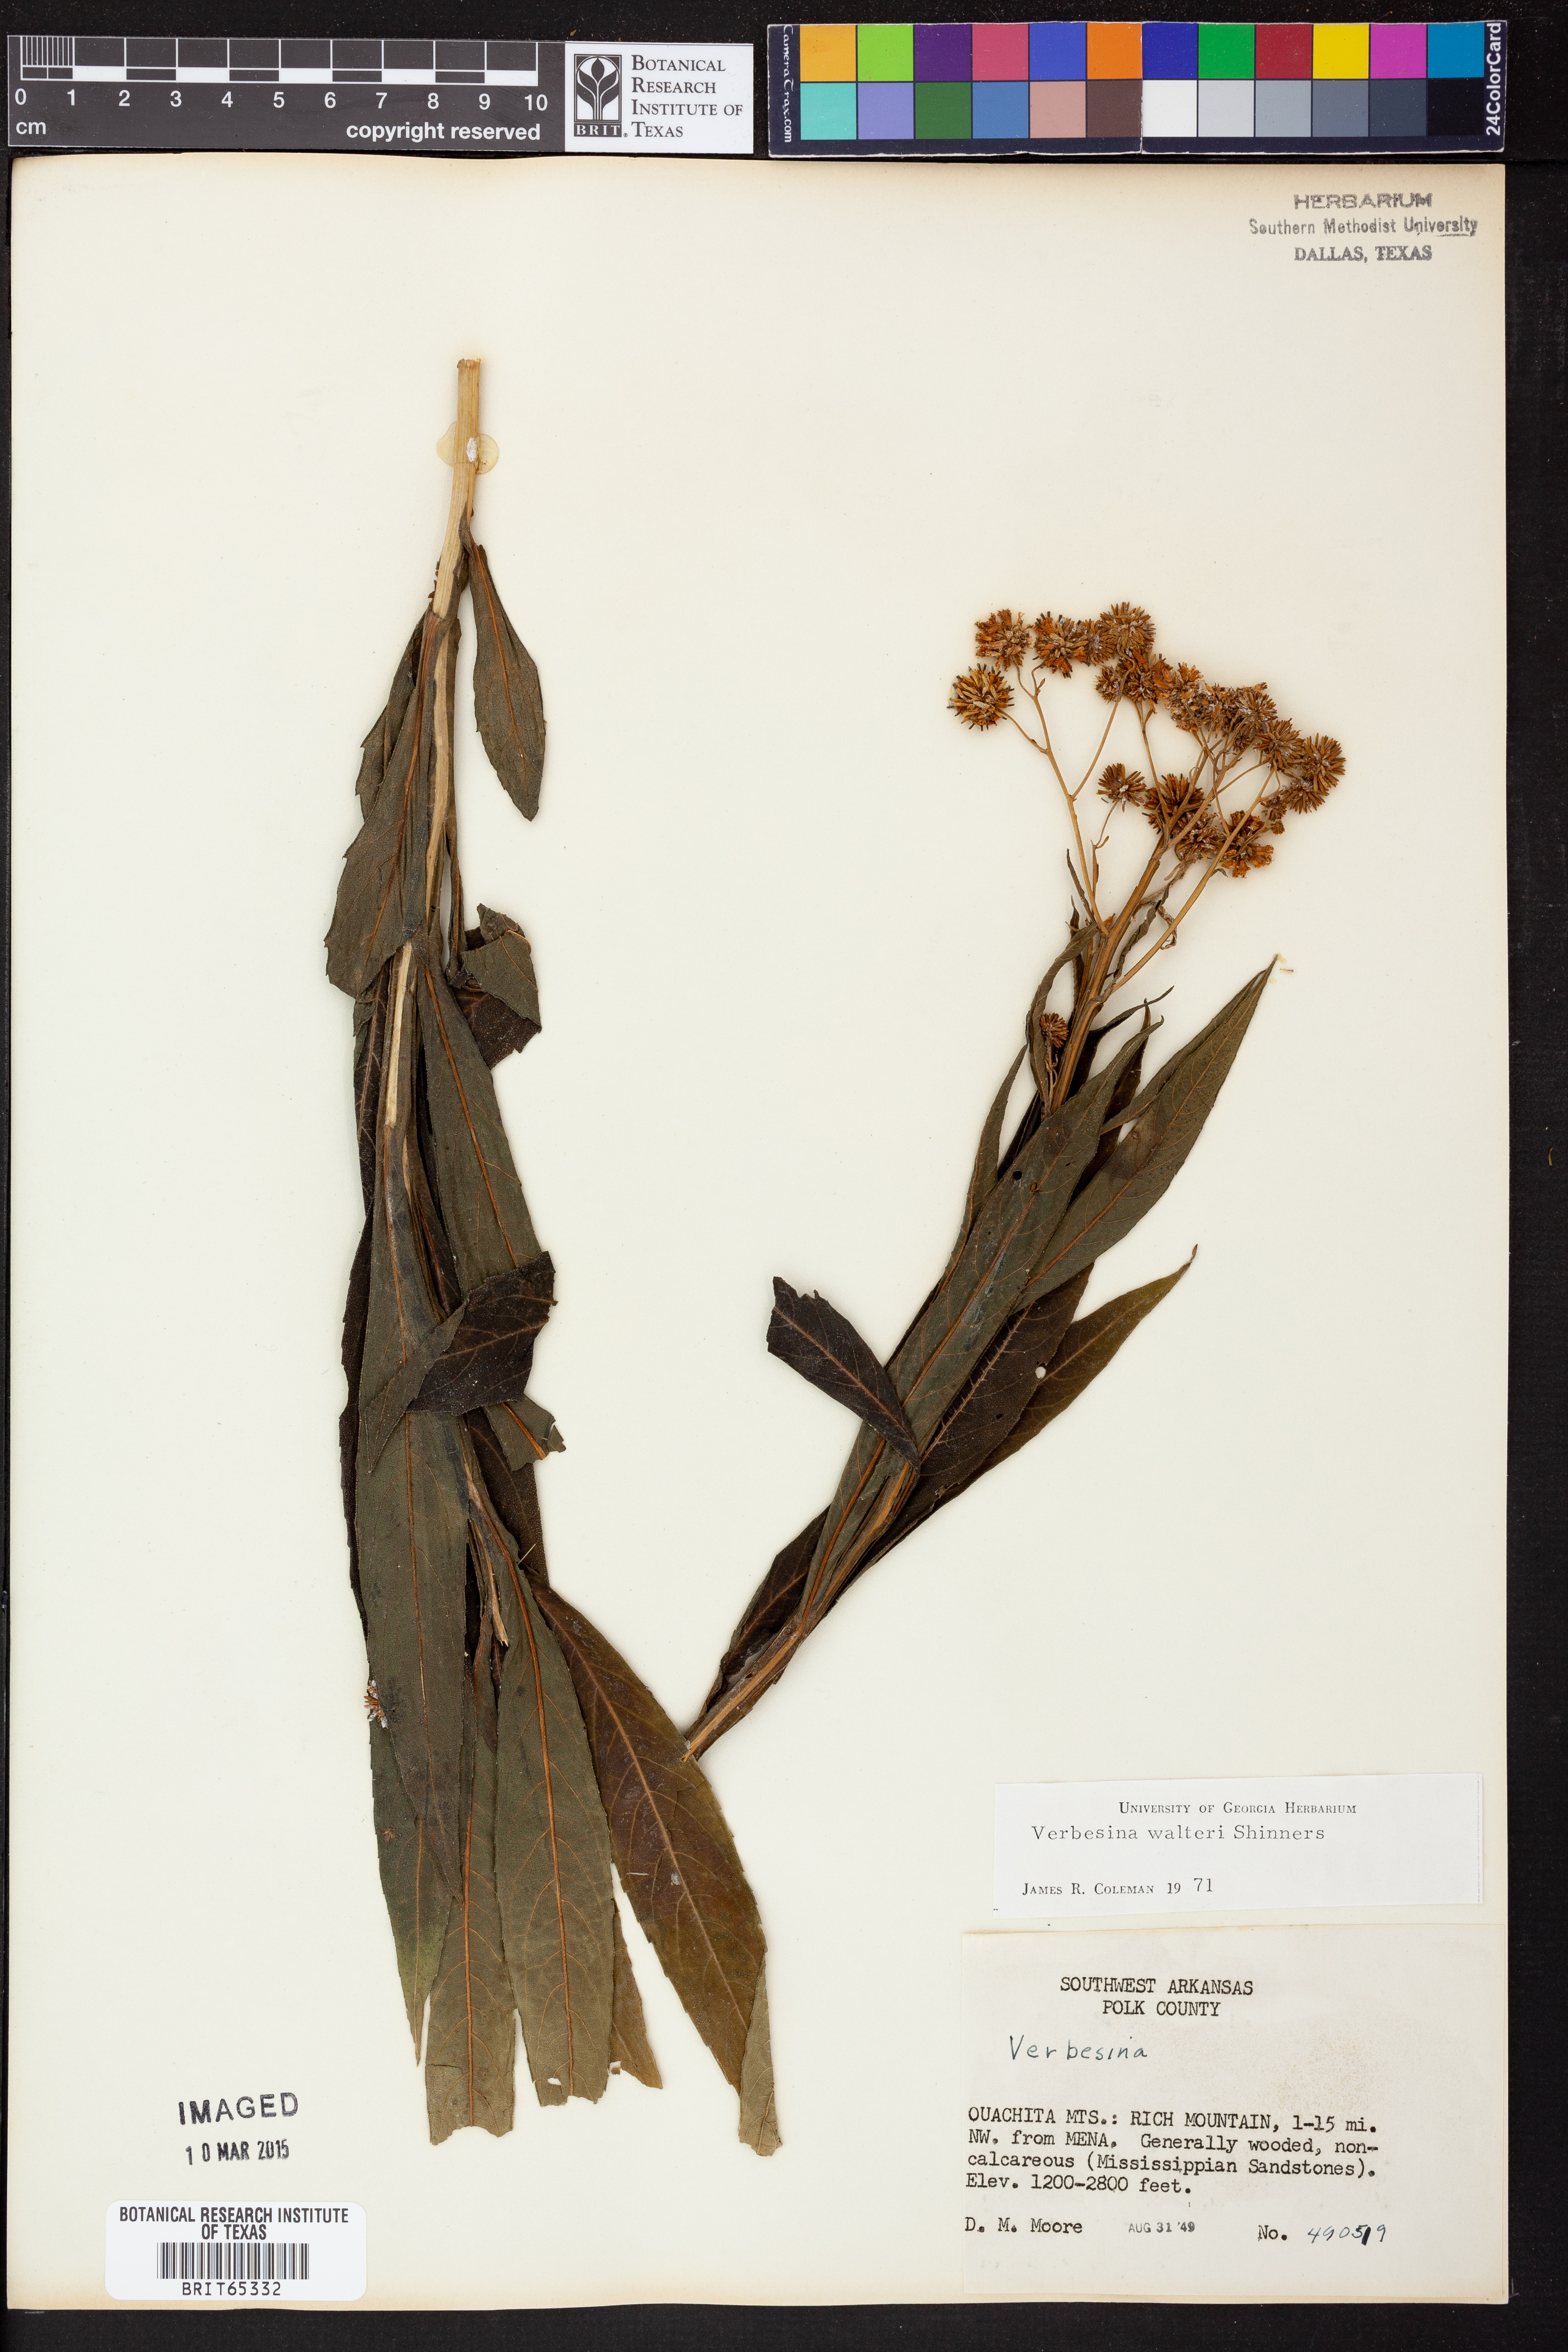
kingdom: Plantae
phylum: Tracheophyta
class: Magnoliopsida
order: Asterales
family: Asteraceae
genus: Verbesina
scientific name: Verbesina
